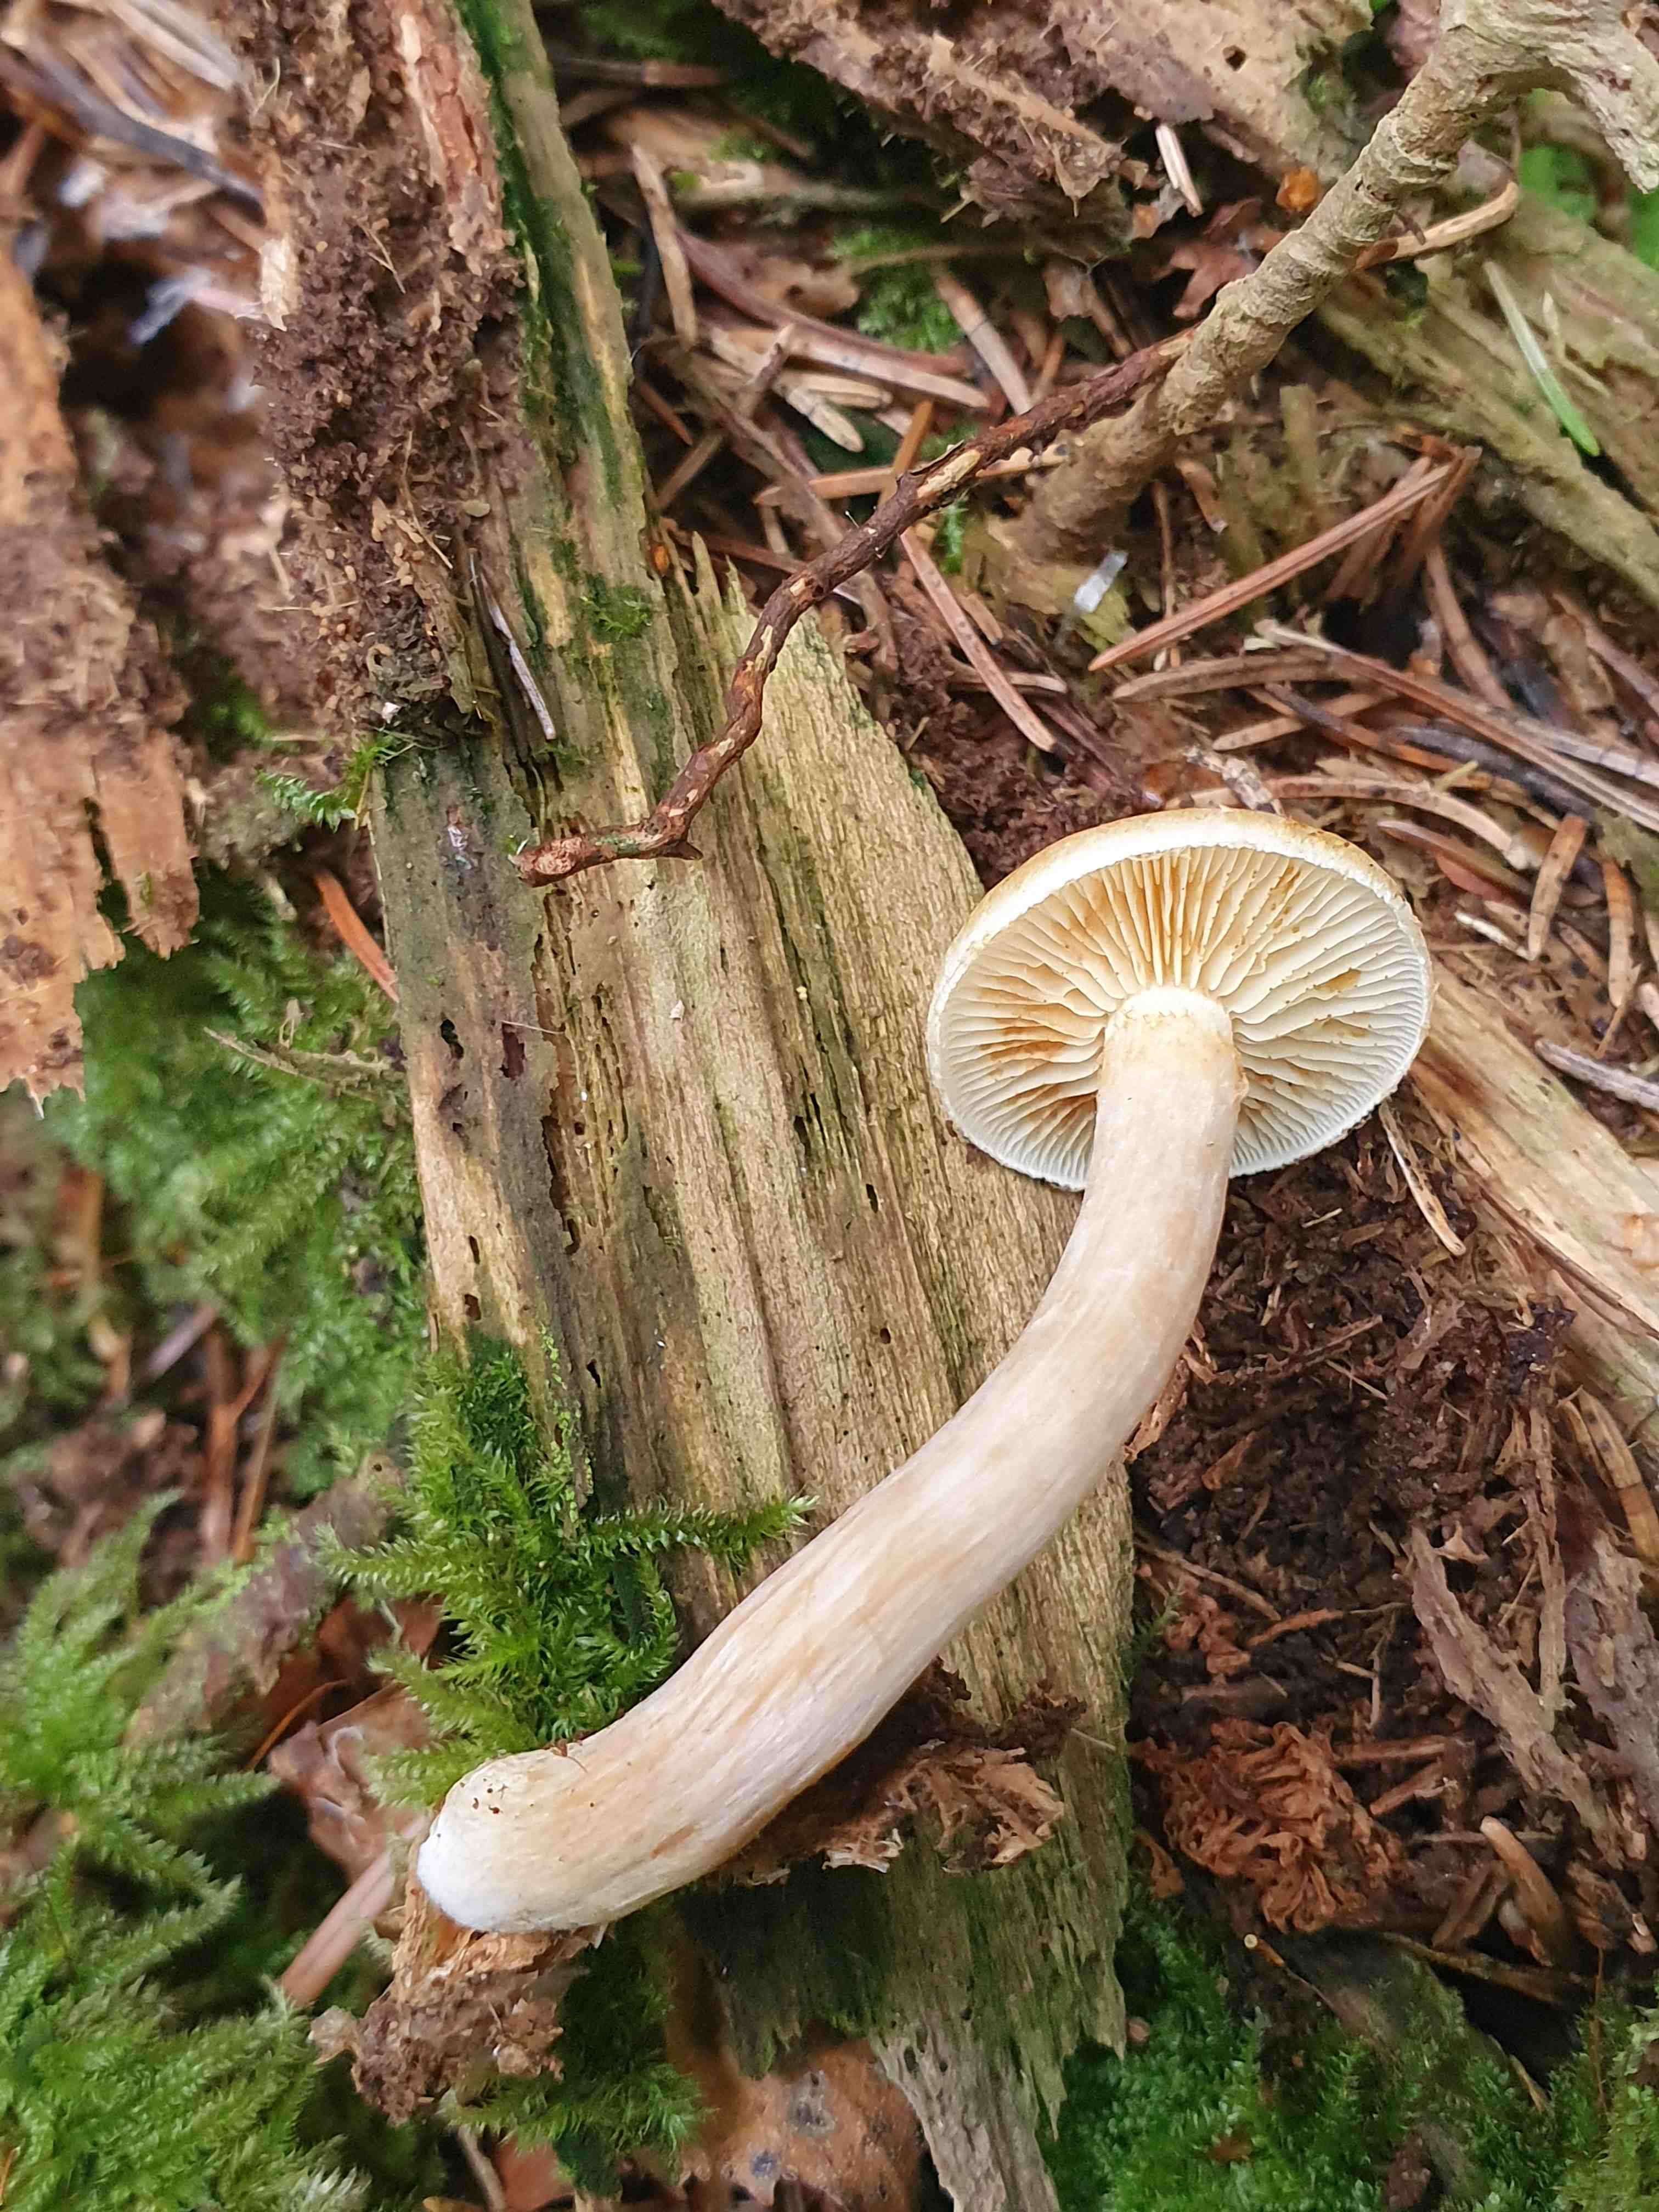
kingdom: Fungi
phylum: Basidiomycota
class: Agaricomycetes
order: Agaricales
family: Hymenogastraceae
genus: Gymnopilus
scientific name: Gymnopilus penetrans
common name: plettet flammehat
